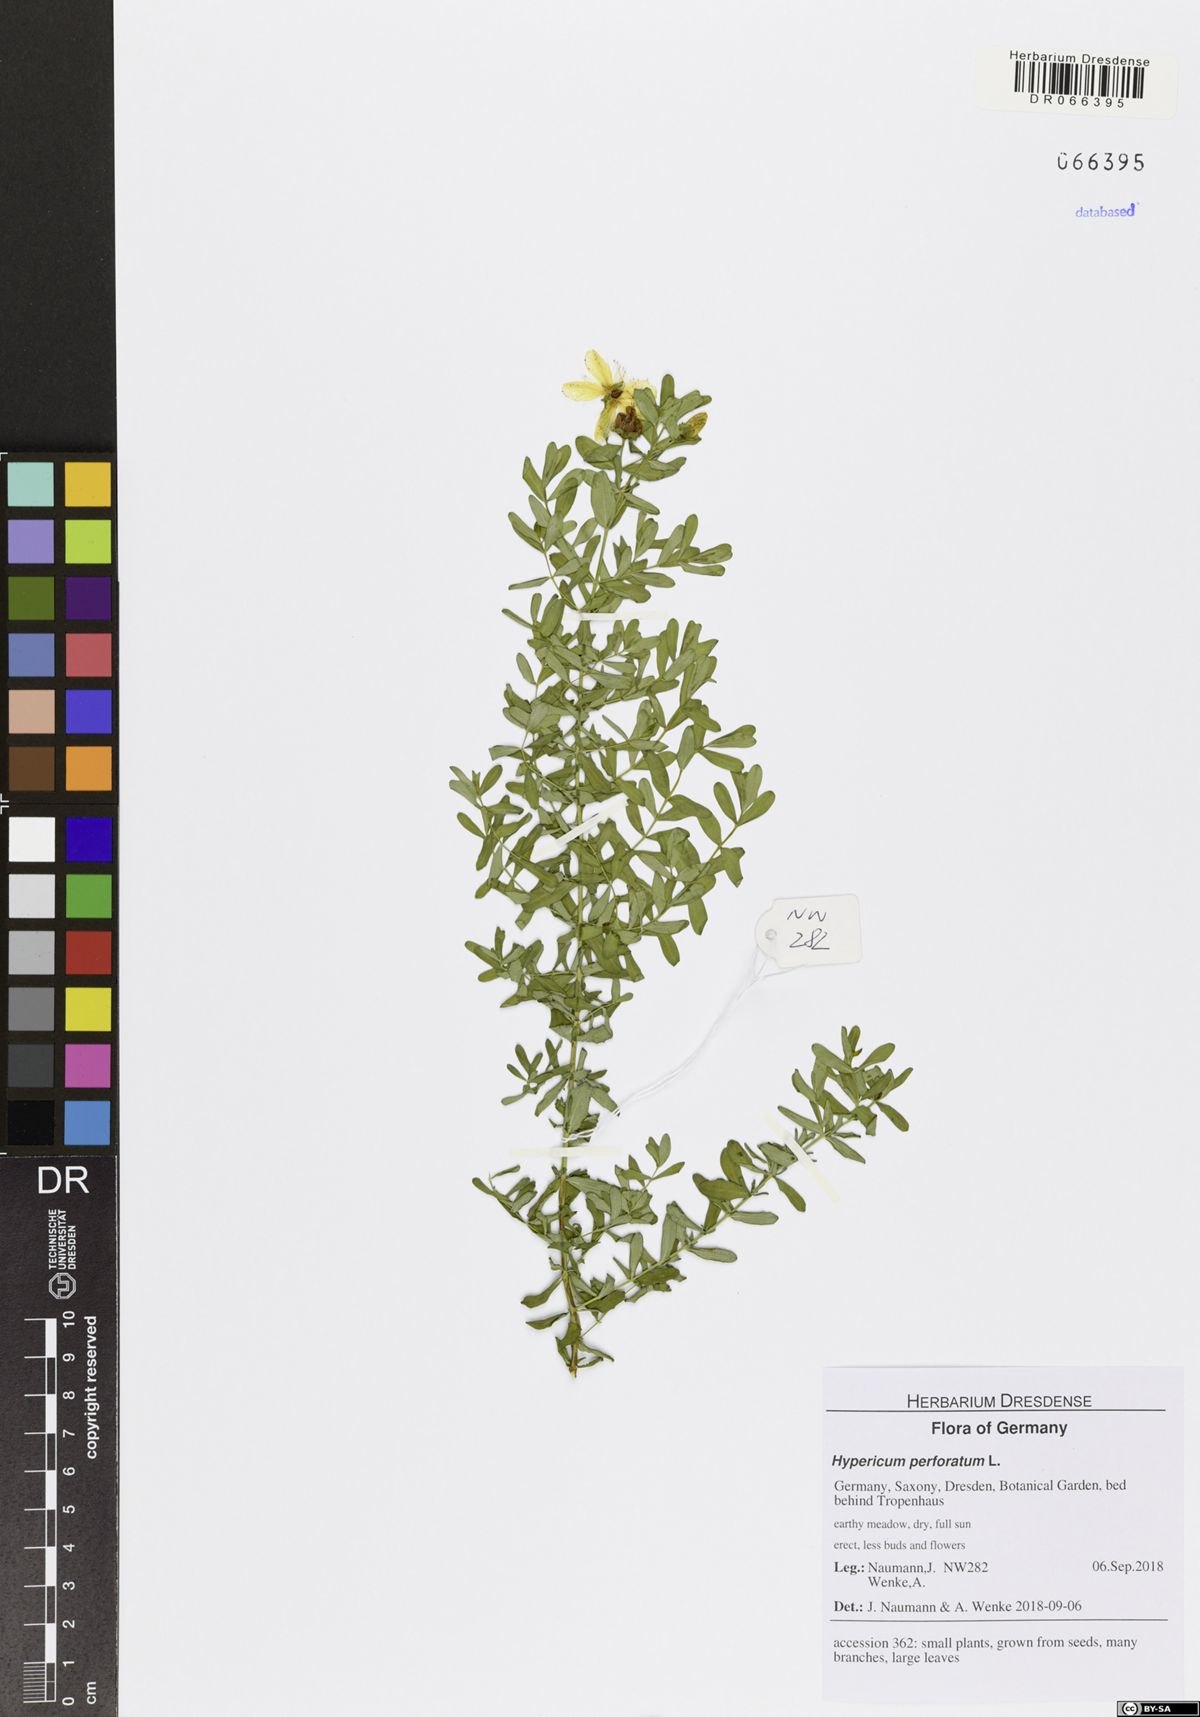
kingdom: Plantae
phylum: Tracheophyta
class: Magnoliopsida
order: Malpighiales
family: Hypericaceae
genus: Hypericum
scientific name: Hypericum perforatum
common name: Common st. johnswort
